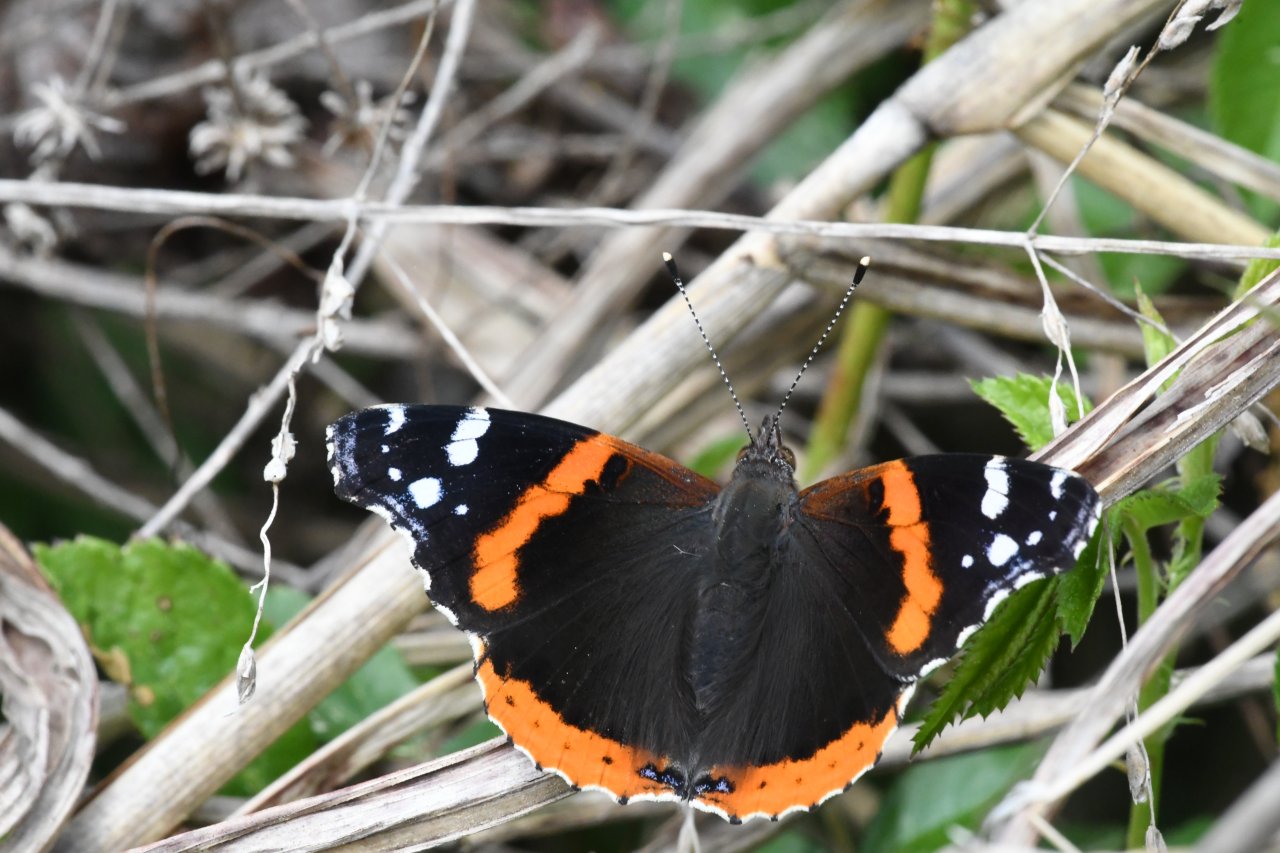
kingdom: Animalia
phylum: Arthropoda
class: Insecta
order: Lepidoptera
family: Nymphalidae
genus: Vanessa
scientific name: Vanessa atalanta
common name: Red Admiral
